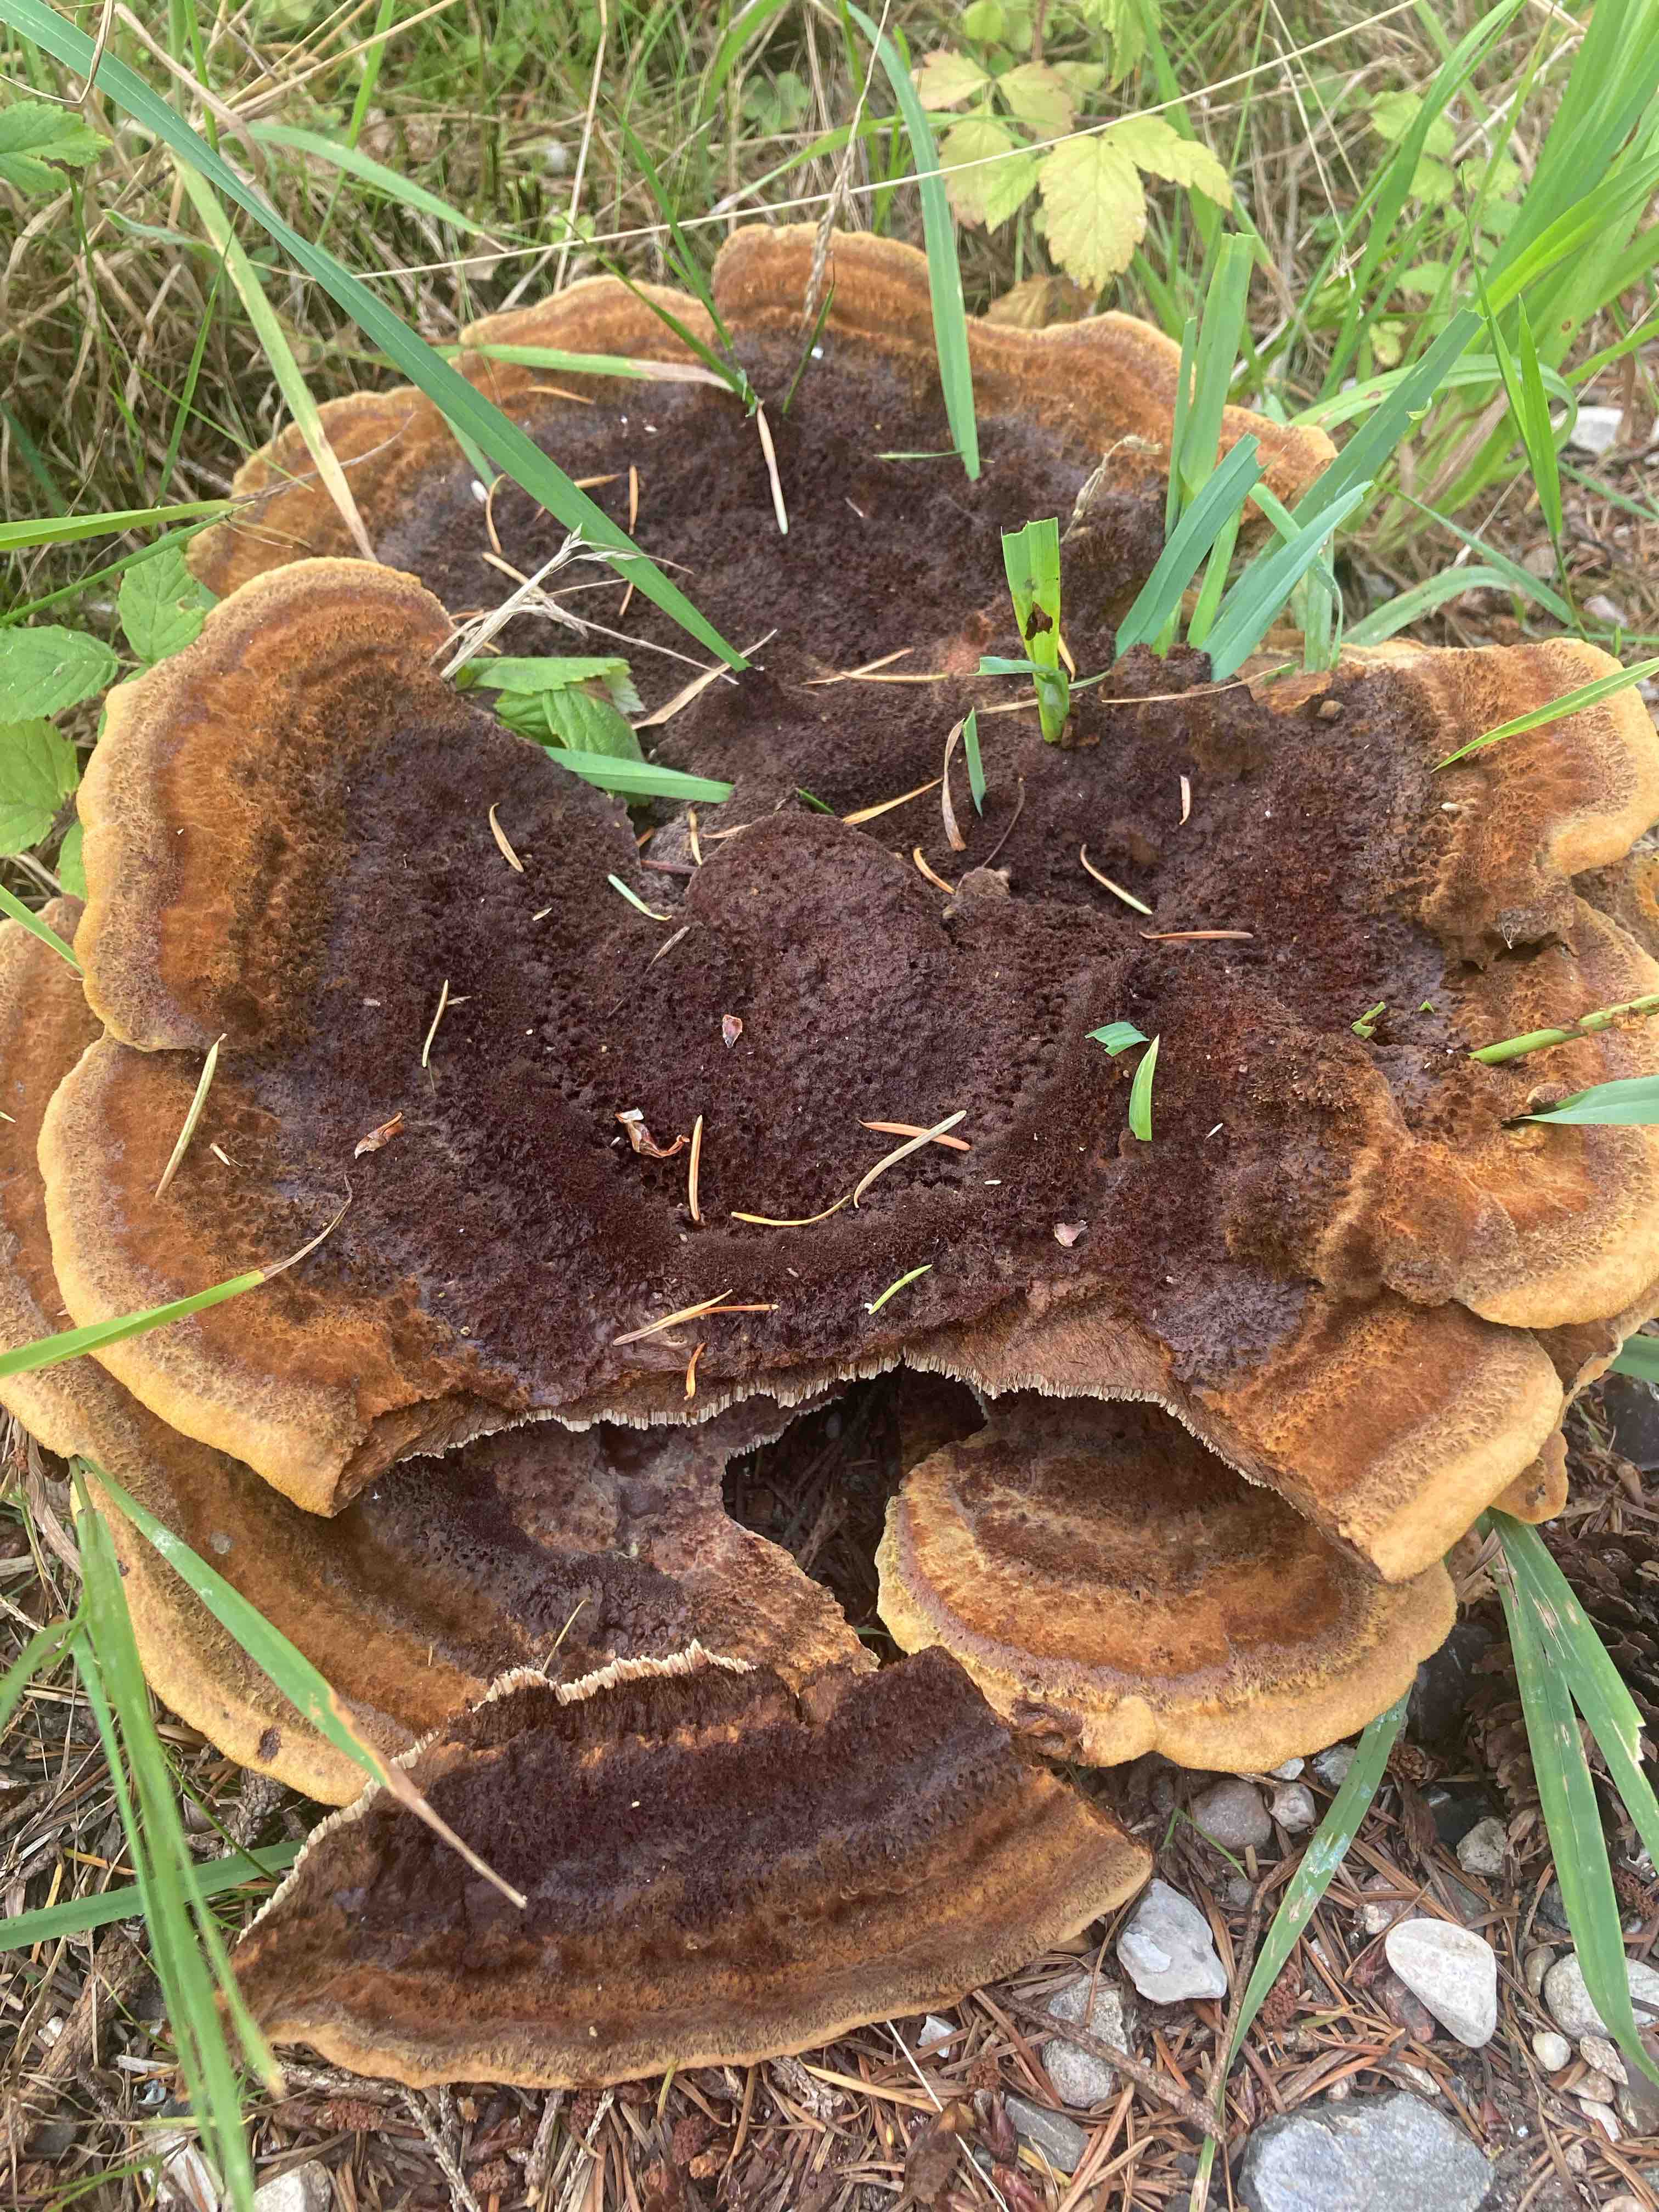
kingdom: Fungi
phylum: Basidiomycota
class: Agaricomycetes
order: Polyporales
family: Laetiporaceae
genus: Phaeolus
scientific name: Phaeolus schweinitzii
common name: brunporesvamp
